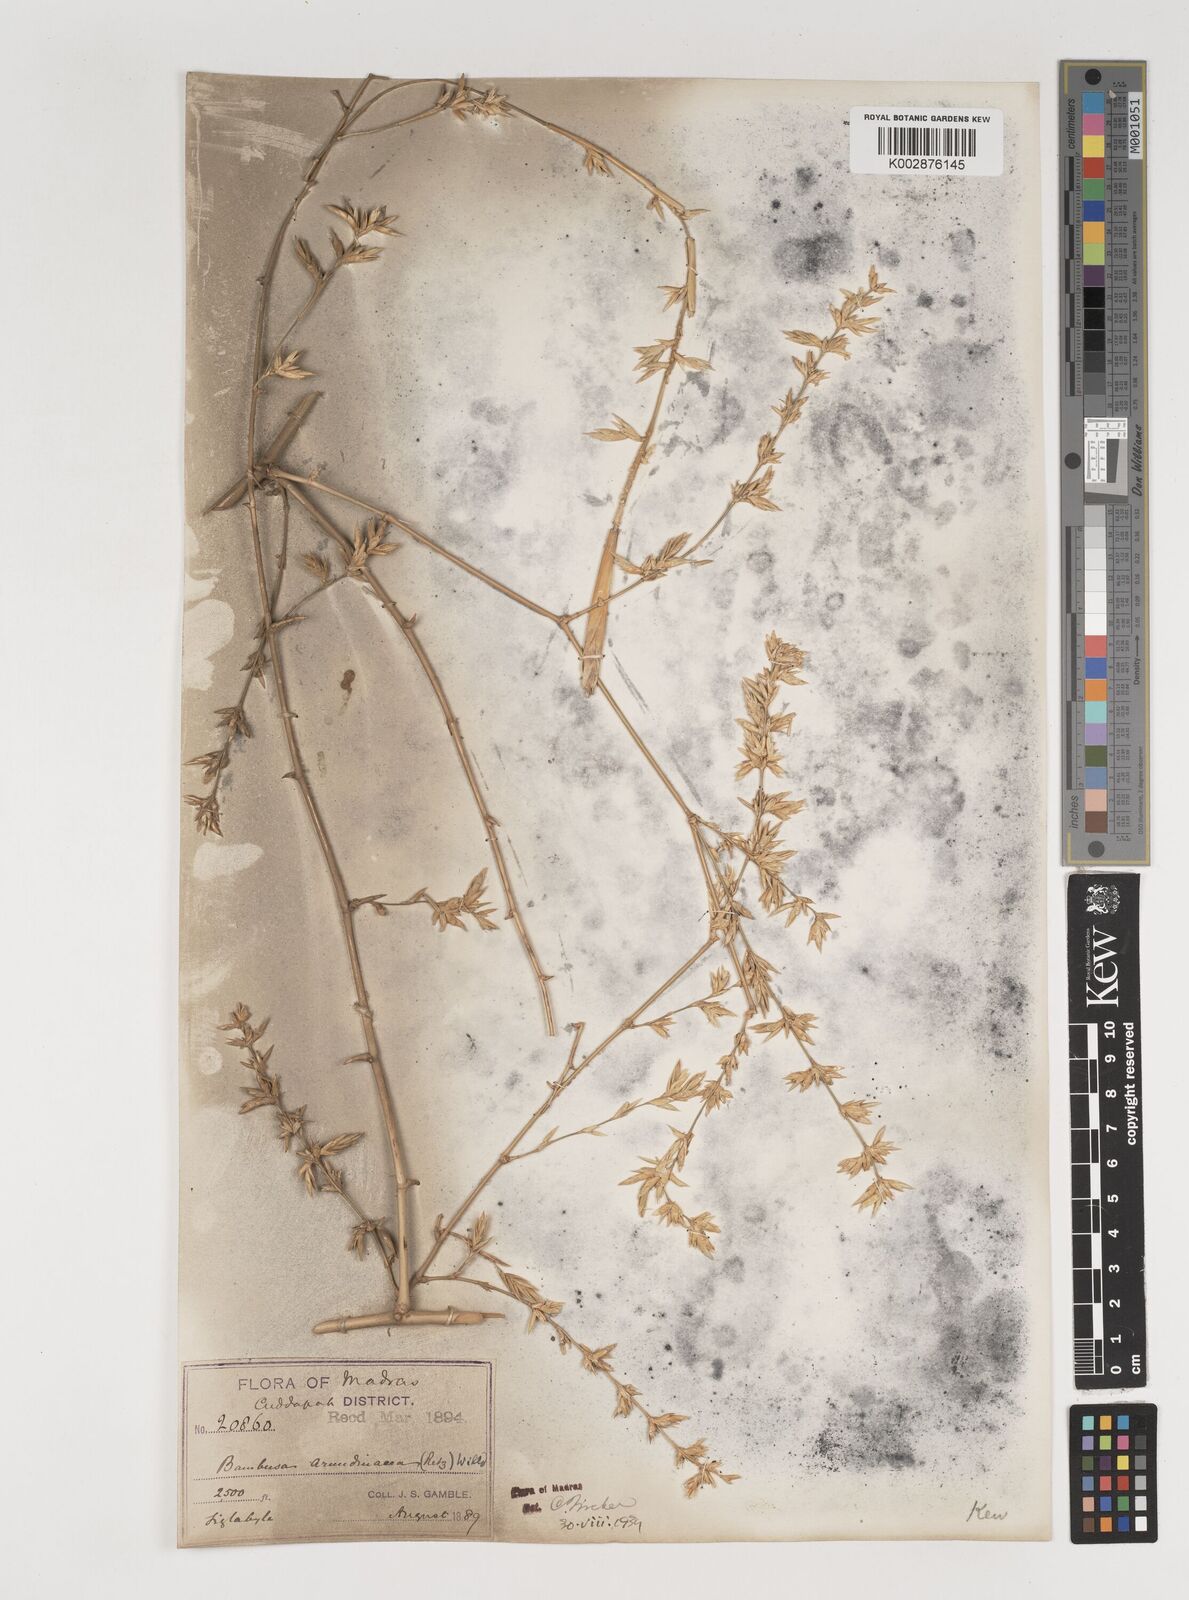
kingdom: Plantae
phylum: Tracheophyta
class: Liliopsida
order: Poales
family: Poaceae
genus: Bambusa
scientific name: Bambusa bambos
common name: Indian thorny bamboo
